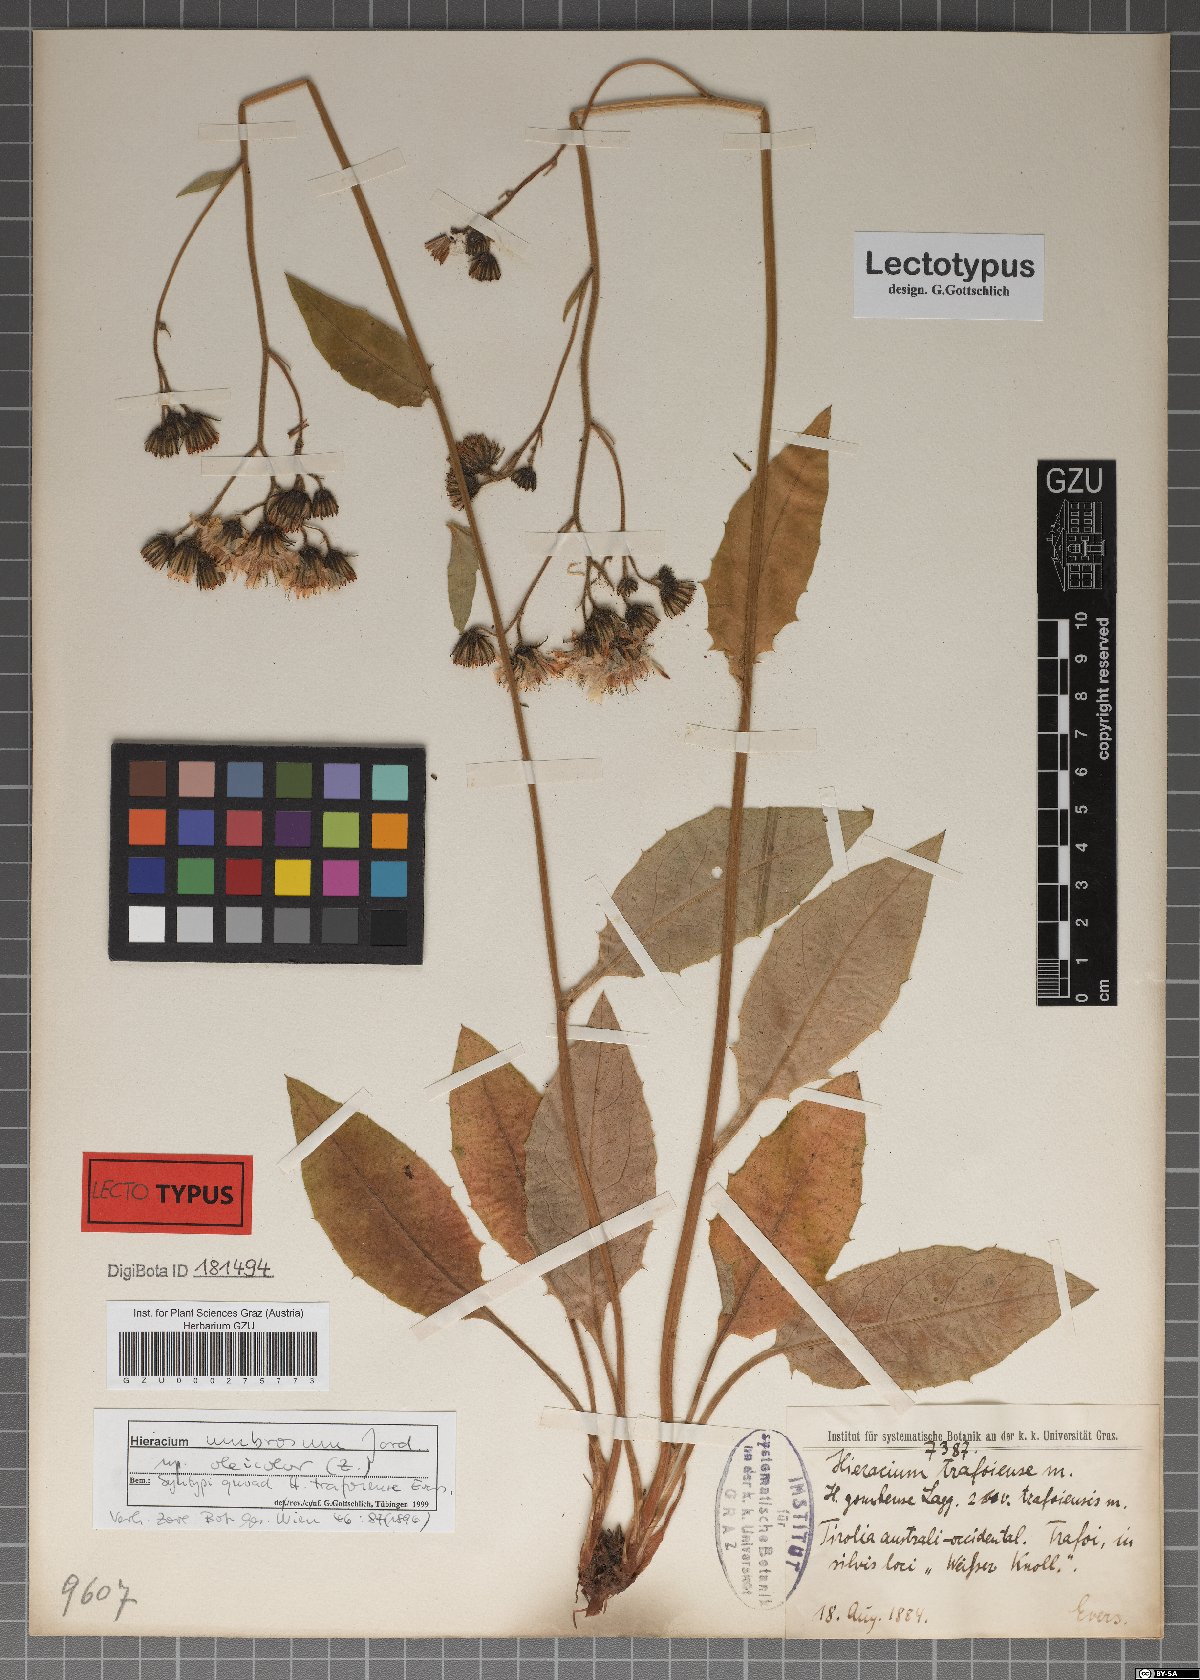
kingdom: Plantae
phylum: Tracheophyta
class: Magnoliopsida
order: Asterales
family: Asteraceae
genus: Hieracium
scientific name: Hieracium trafoiense
